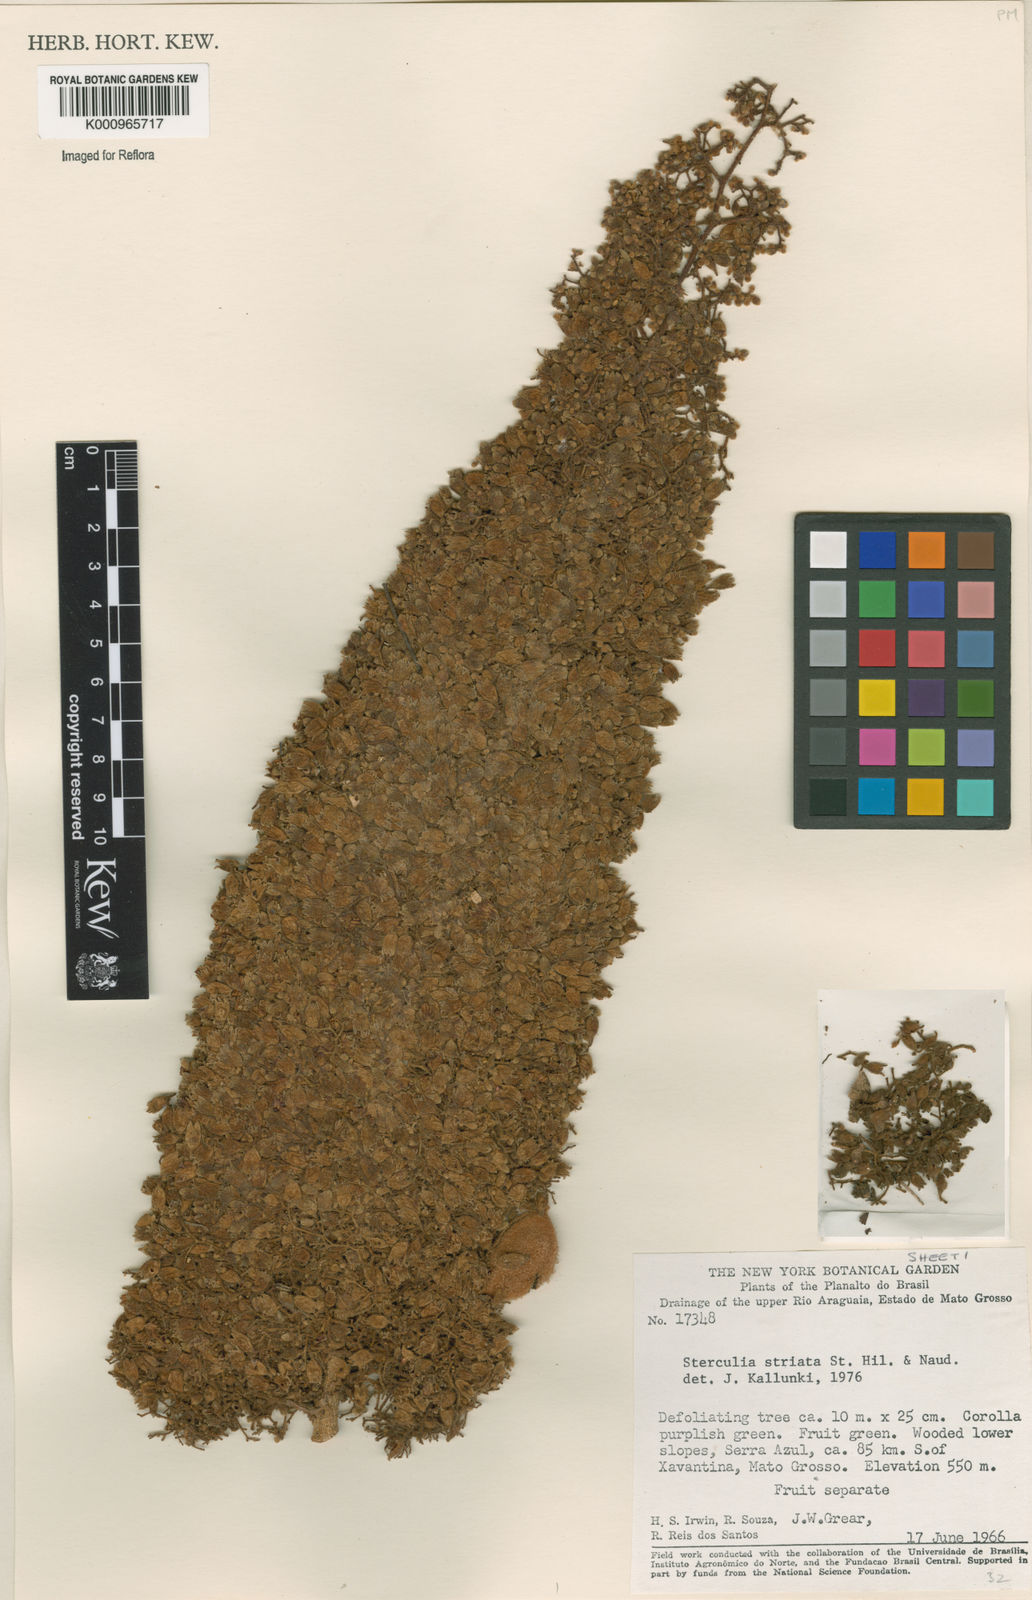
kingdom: Plantae
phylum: Tracheophyta
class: Magnoliopsida
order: Malvales
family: Malvaceae
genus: Sterculia
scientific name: Sterculia striata
